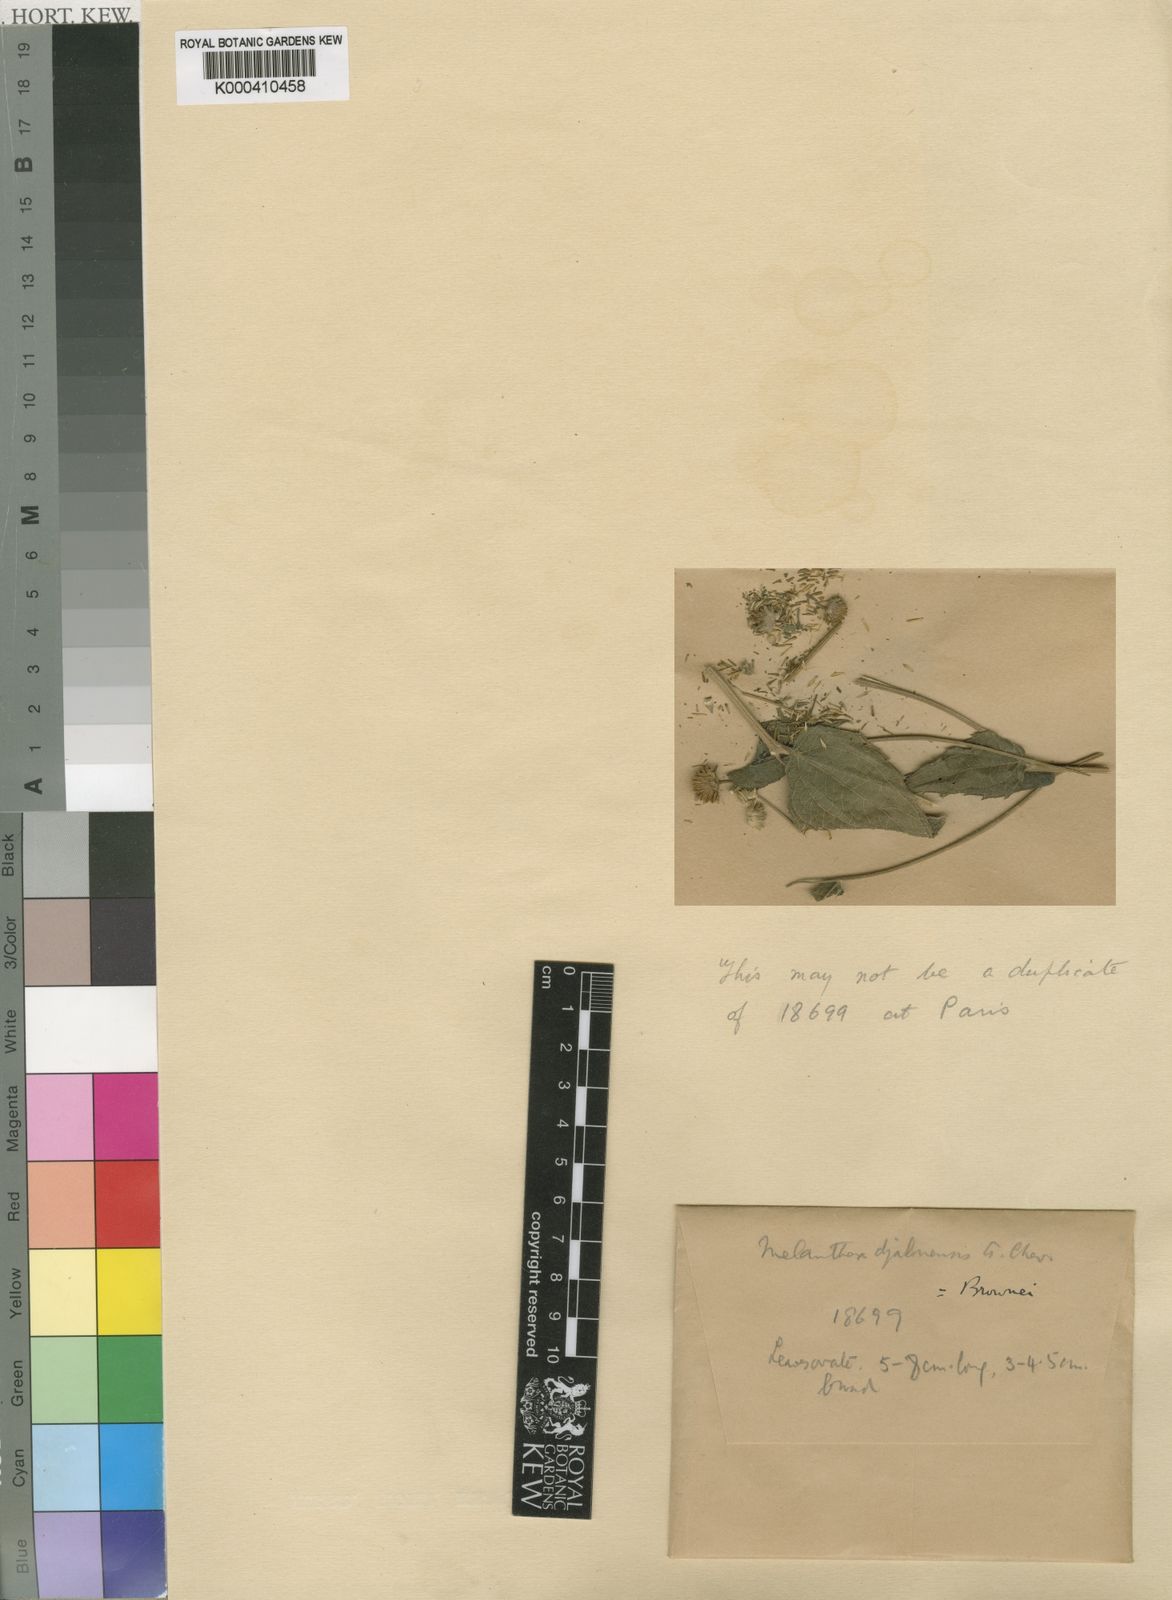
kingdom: Plantae
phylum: Tracheophyta
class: Magnoliopsida
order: Asterales
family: Asteraceae
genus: Lipotriche
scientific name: Lipotriche abyssinica
